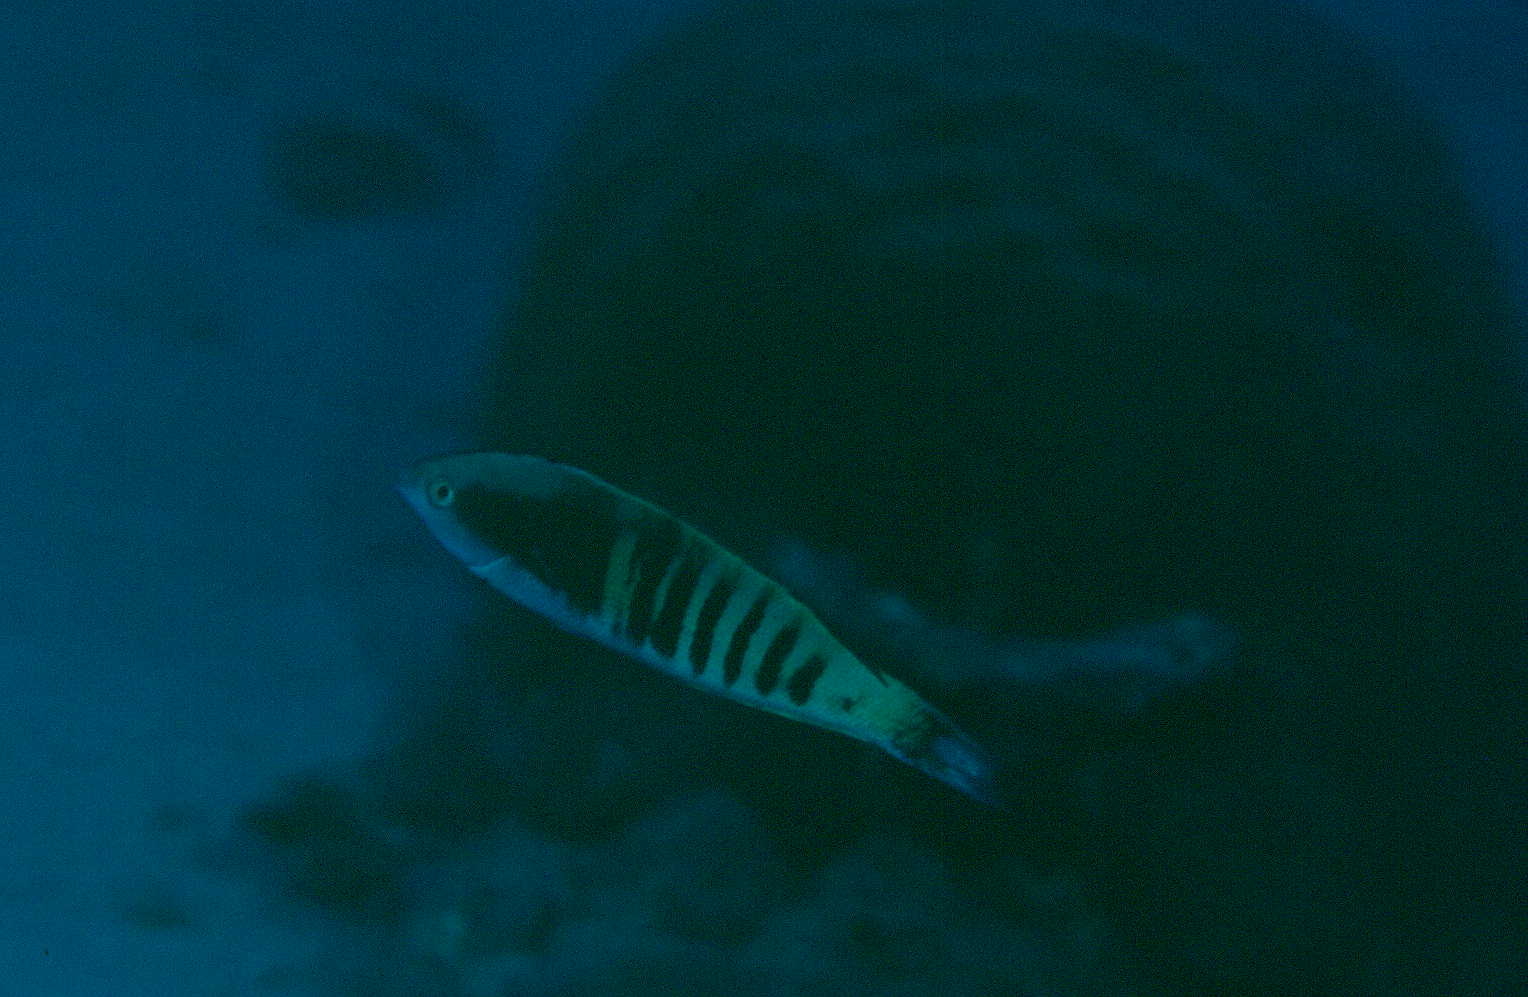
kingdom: Animalia
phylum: Chordata
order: Perciformes
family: Labridae
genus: Pseudocoris
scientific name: Pseudocoris
